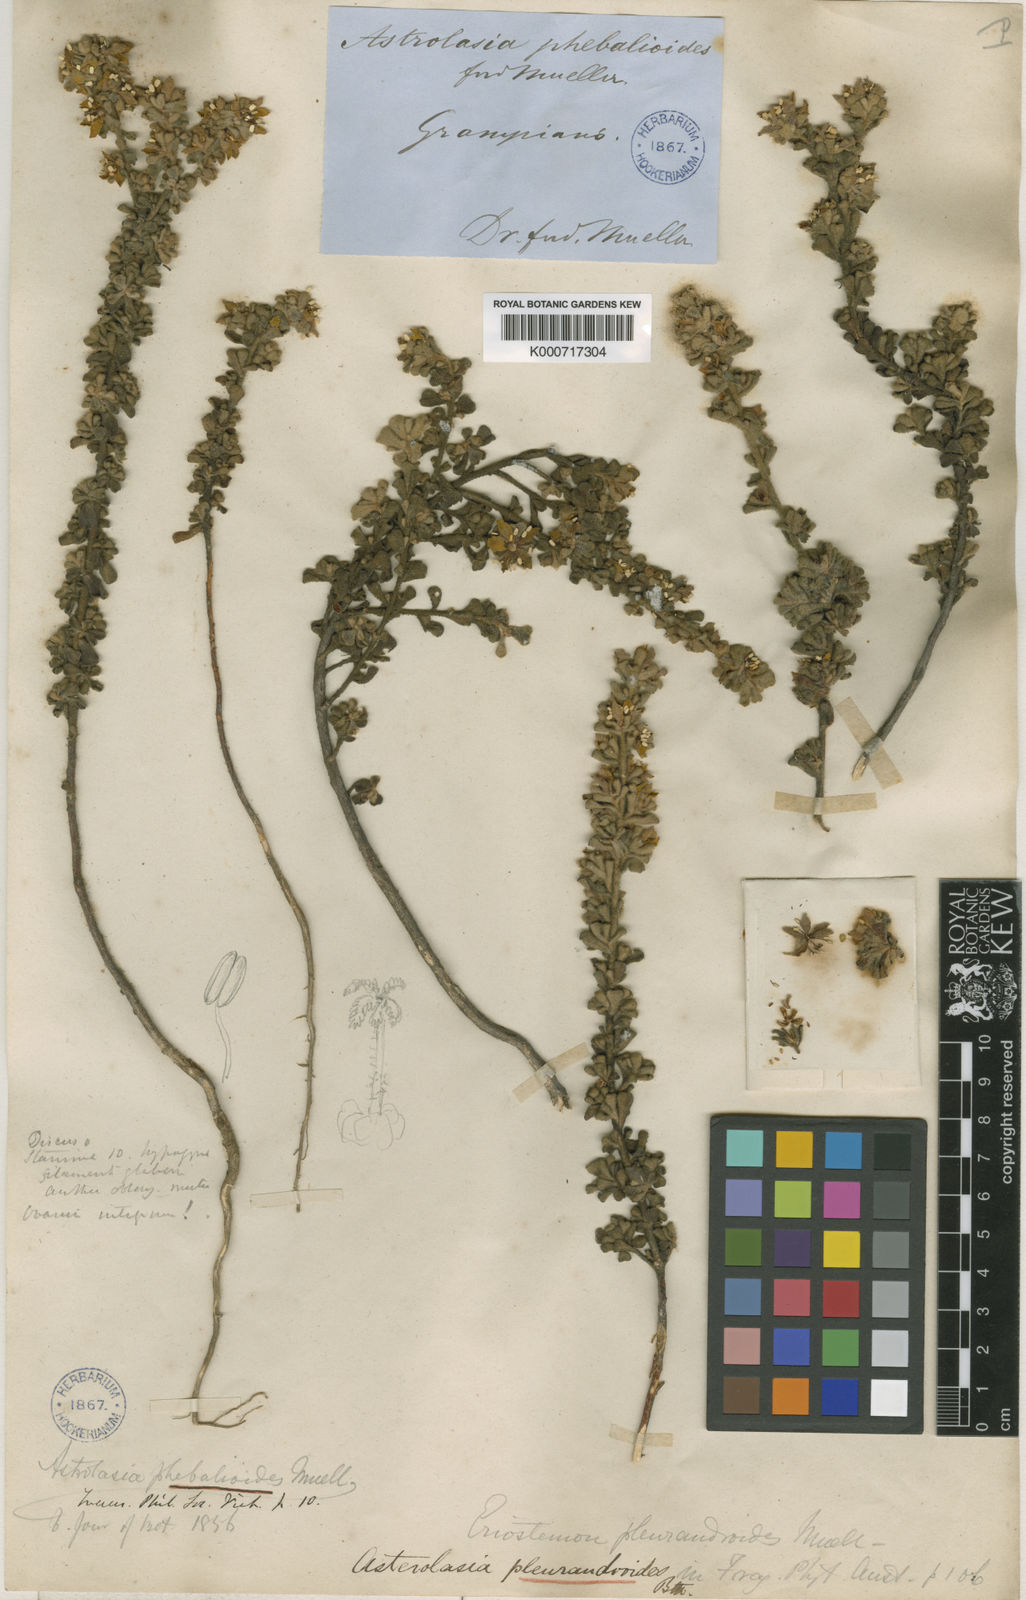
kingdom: Plantae
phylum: Tracheophyta
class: Magnoliopsida
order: Sapindales
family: Rutaceae
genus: Asterolasia
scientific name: Asterolasia phebalioides
